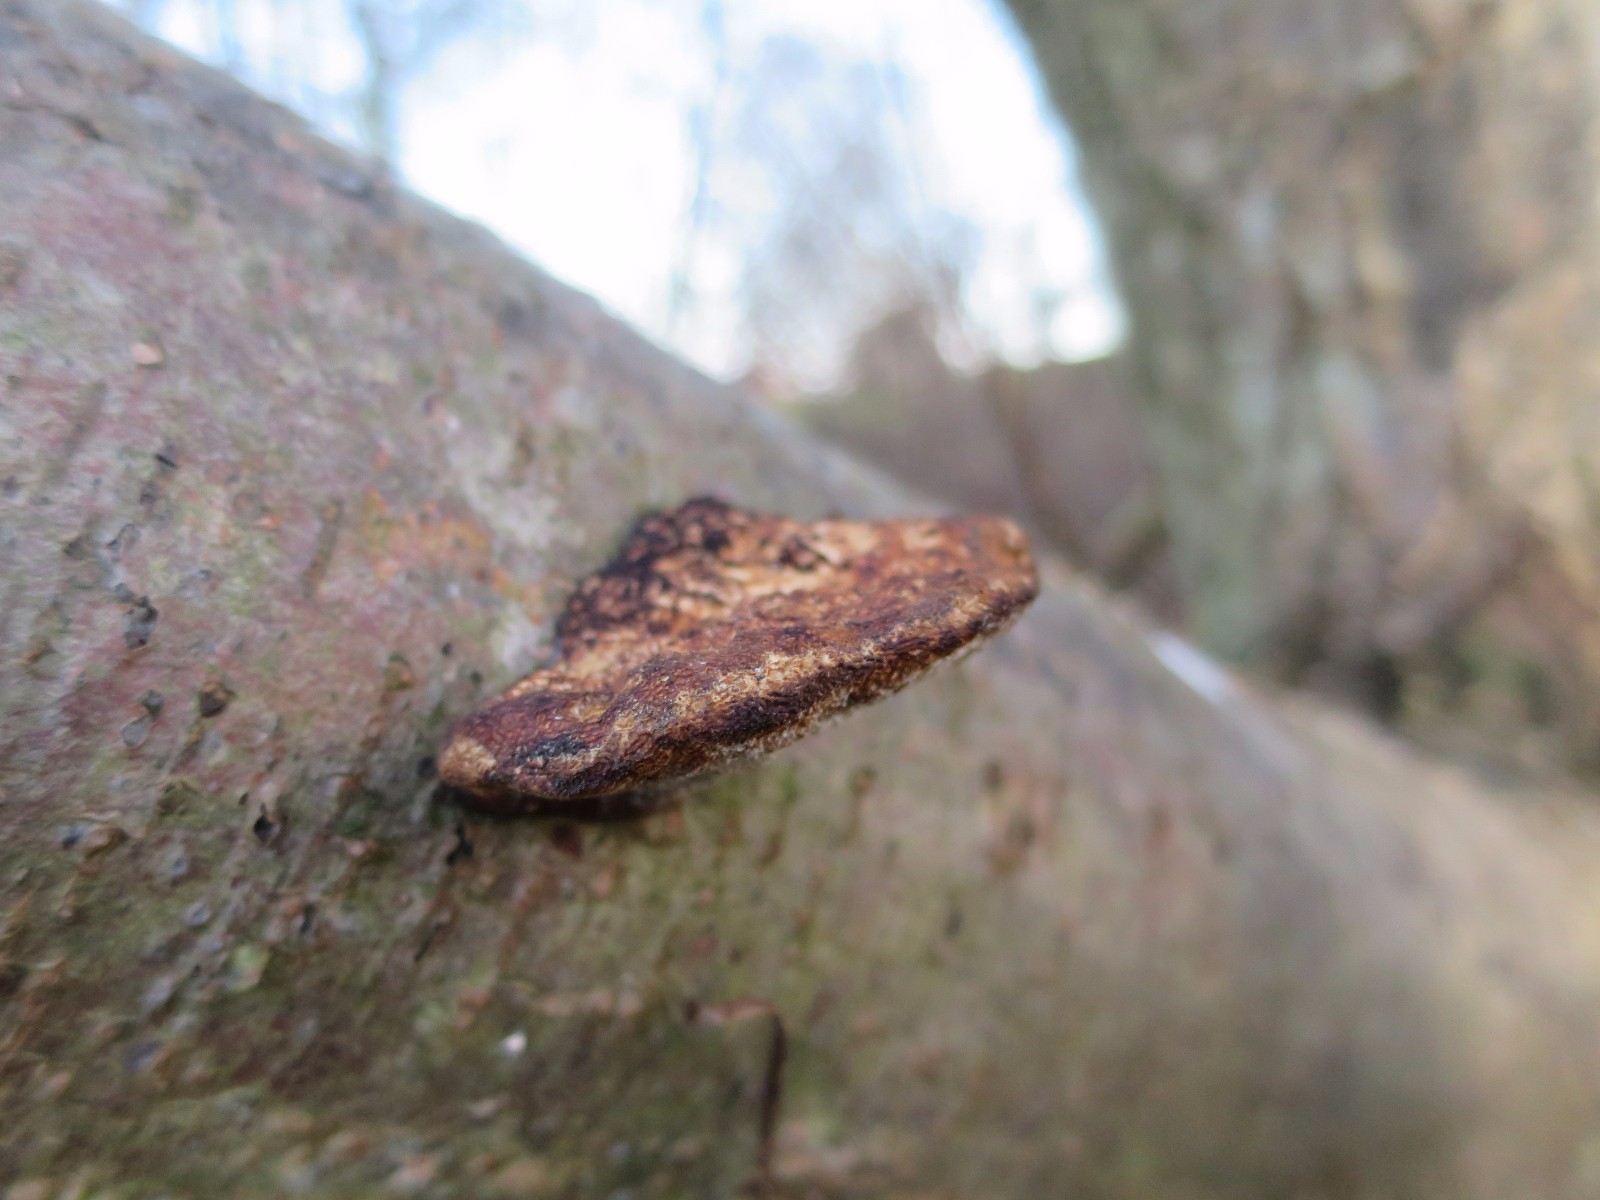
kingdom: Fungi
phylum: Basidiomycota
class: Agaricomycetes
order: Polyporales
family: Polyporaceae
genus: Daedaleopsis
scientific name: Daedaleopsis confragosa
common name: rødmende læderporesvamp
